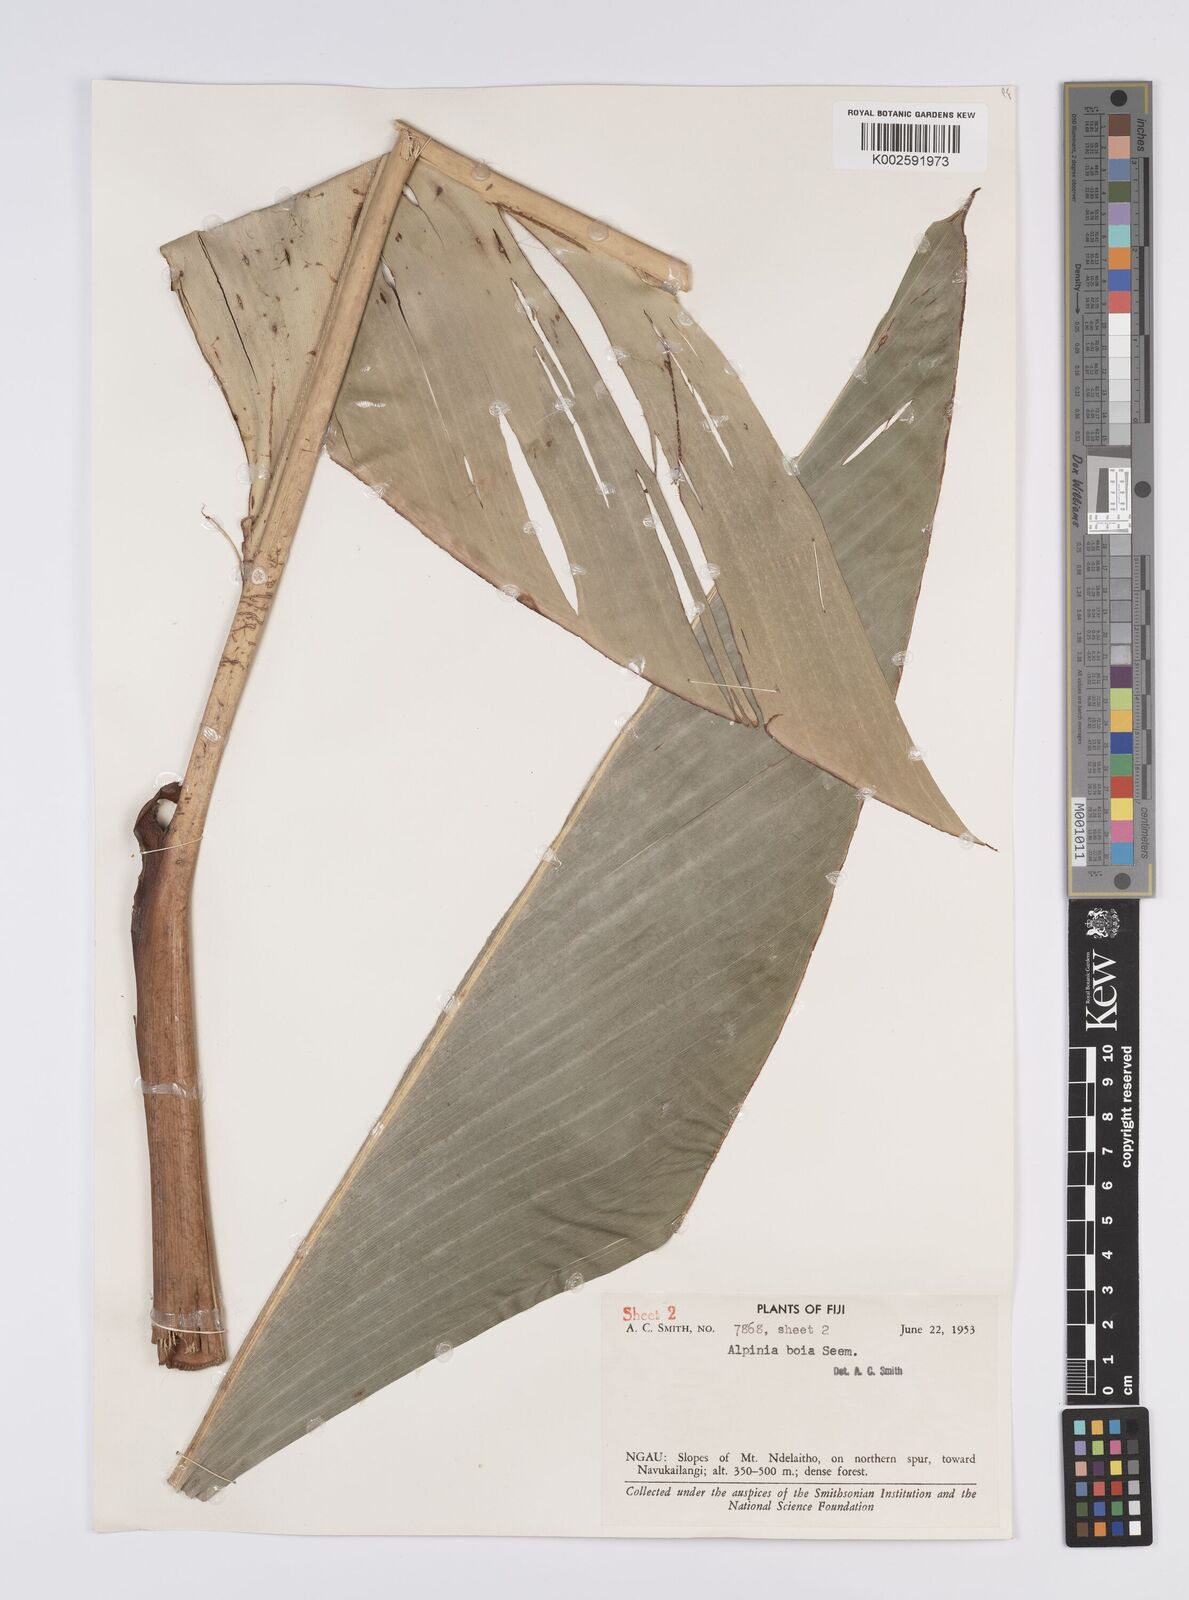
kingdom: Plantae
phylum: Tracheophyta
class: Liliopsida
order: Zingiberales
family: Zingiberaceae
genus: Alpinia
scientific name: Alpinia boia
